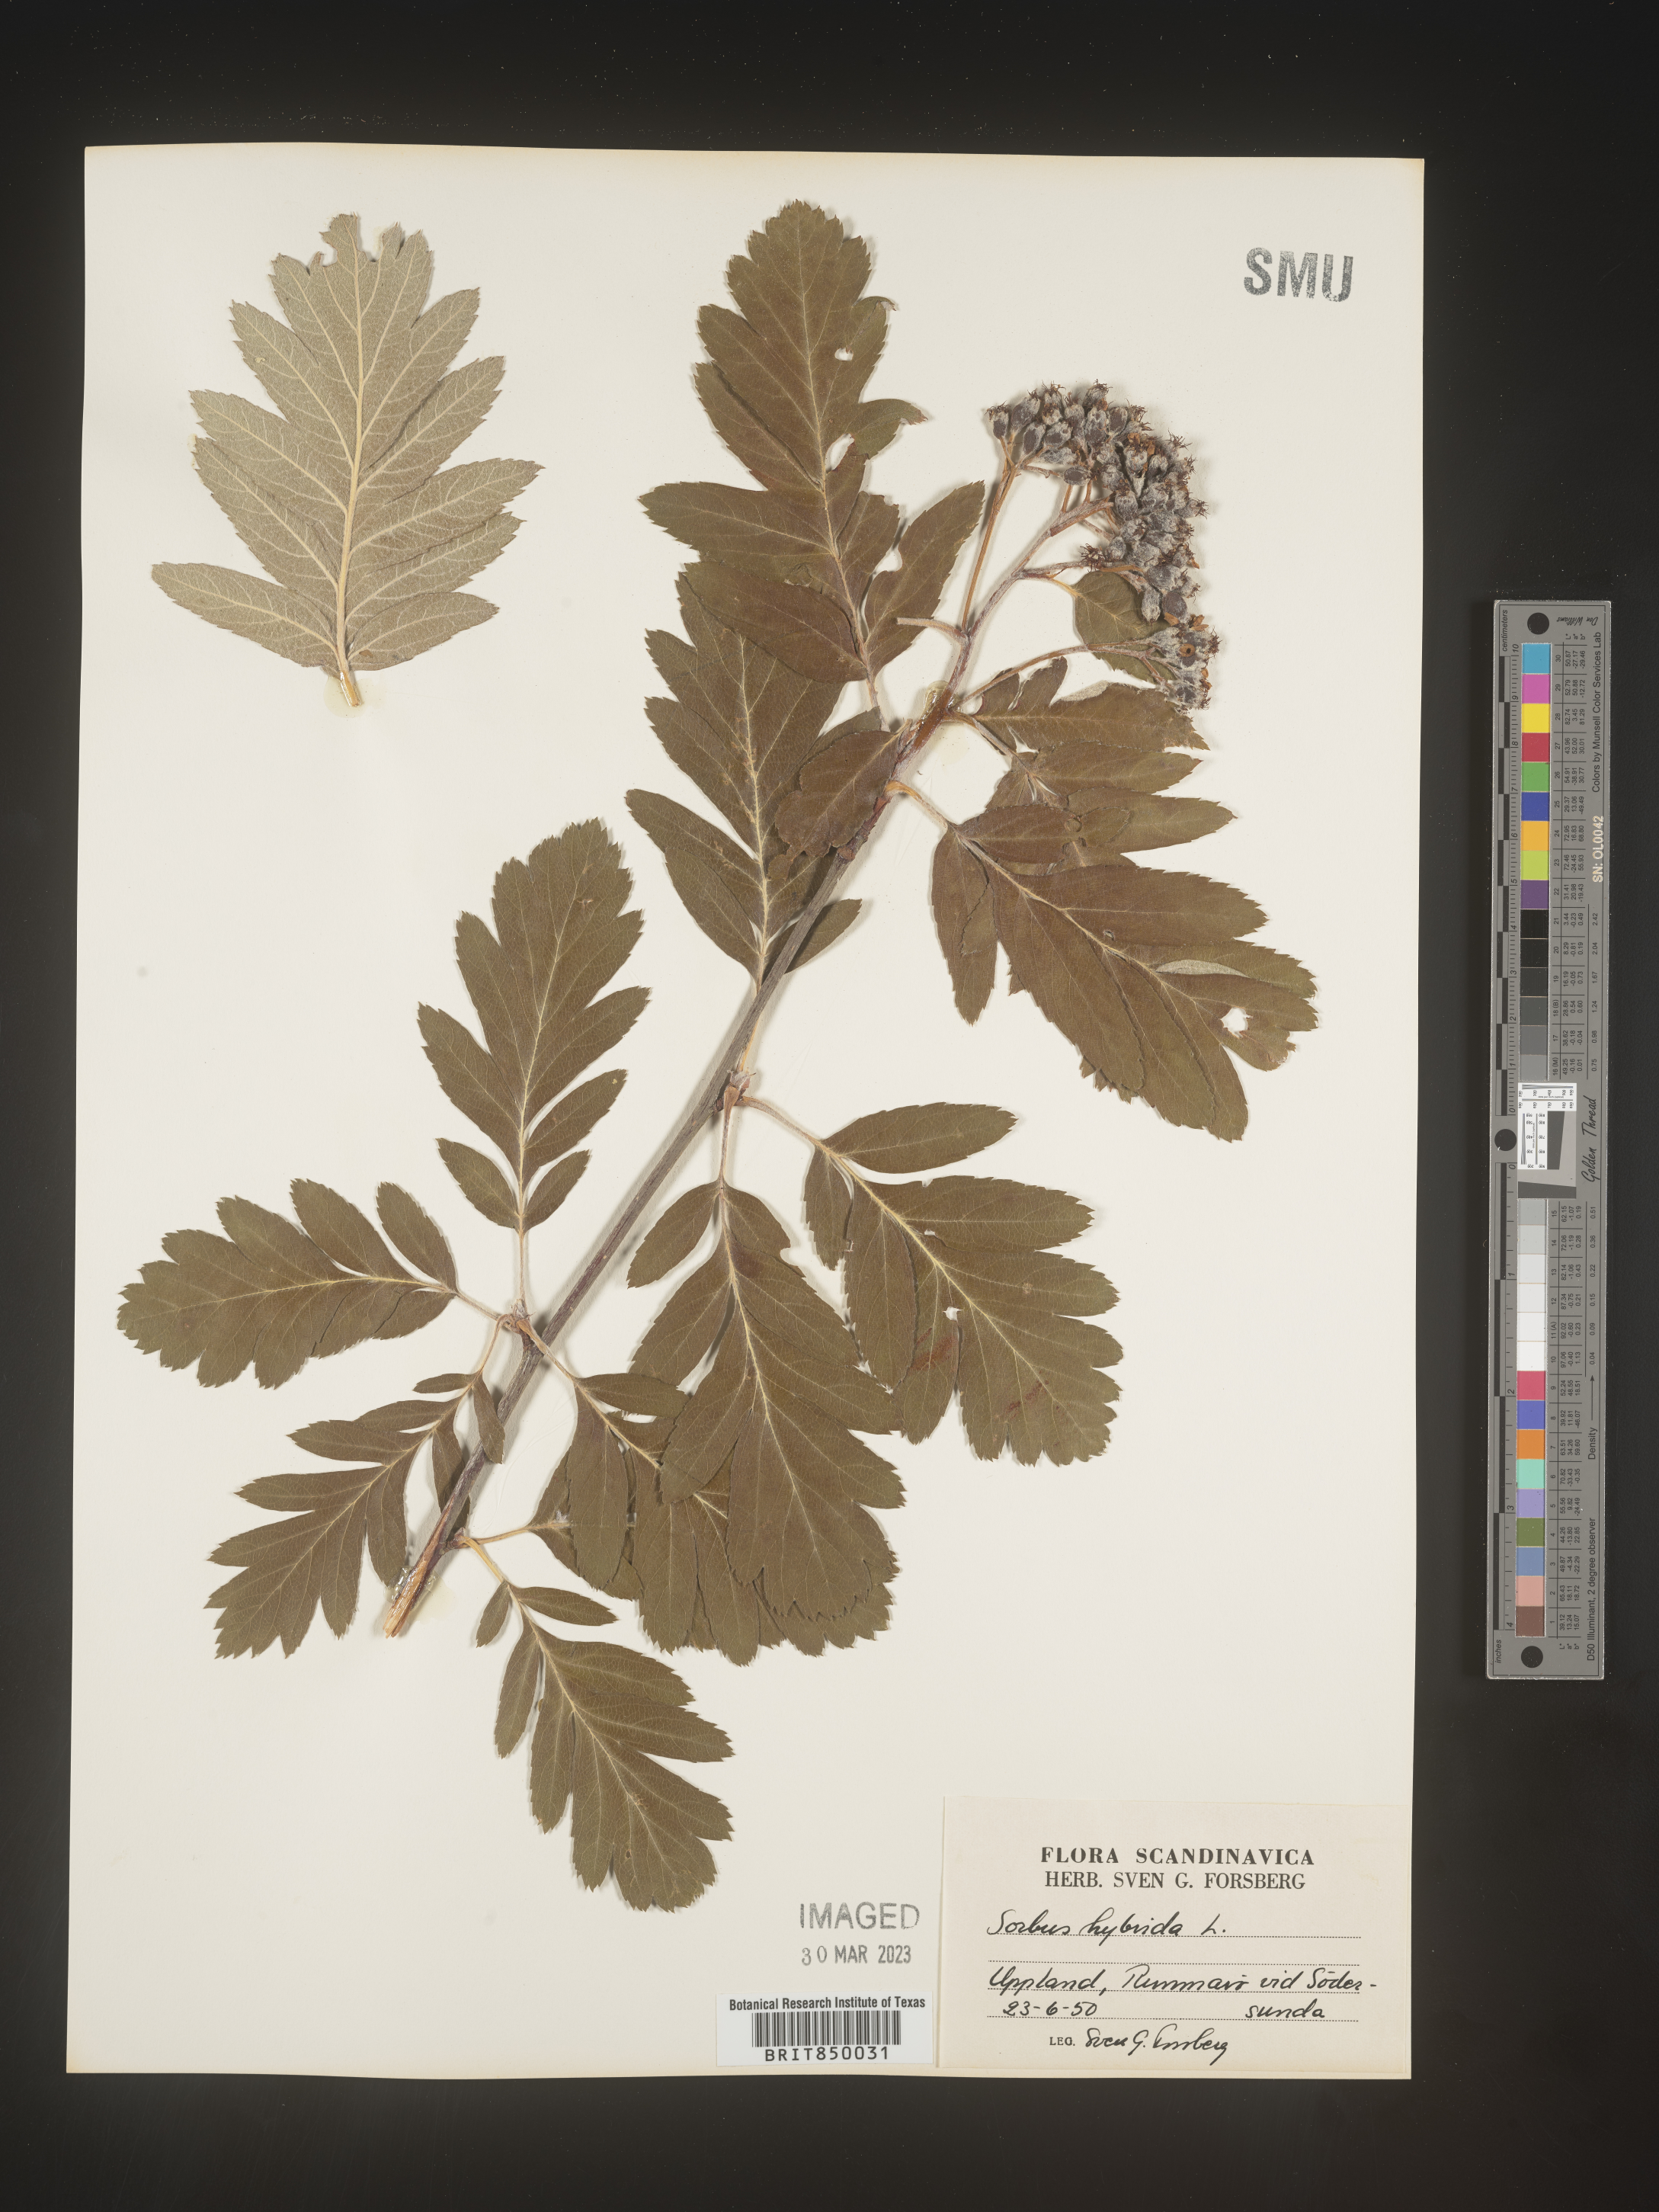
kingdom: Plantae
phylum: Tracheophyta
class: Magnoliopsida
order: Rosales
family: Rosaceae
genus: Sorbus
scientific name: Sorbus
